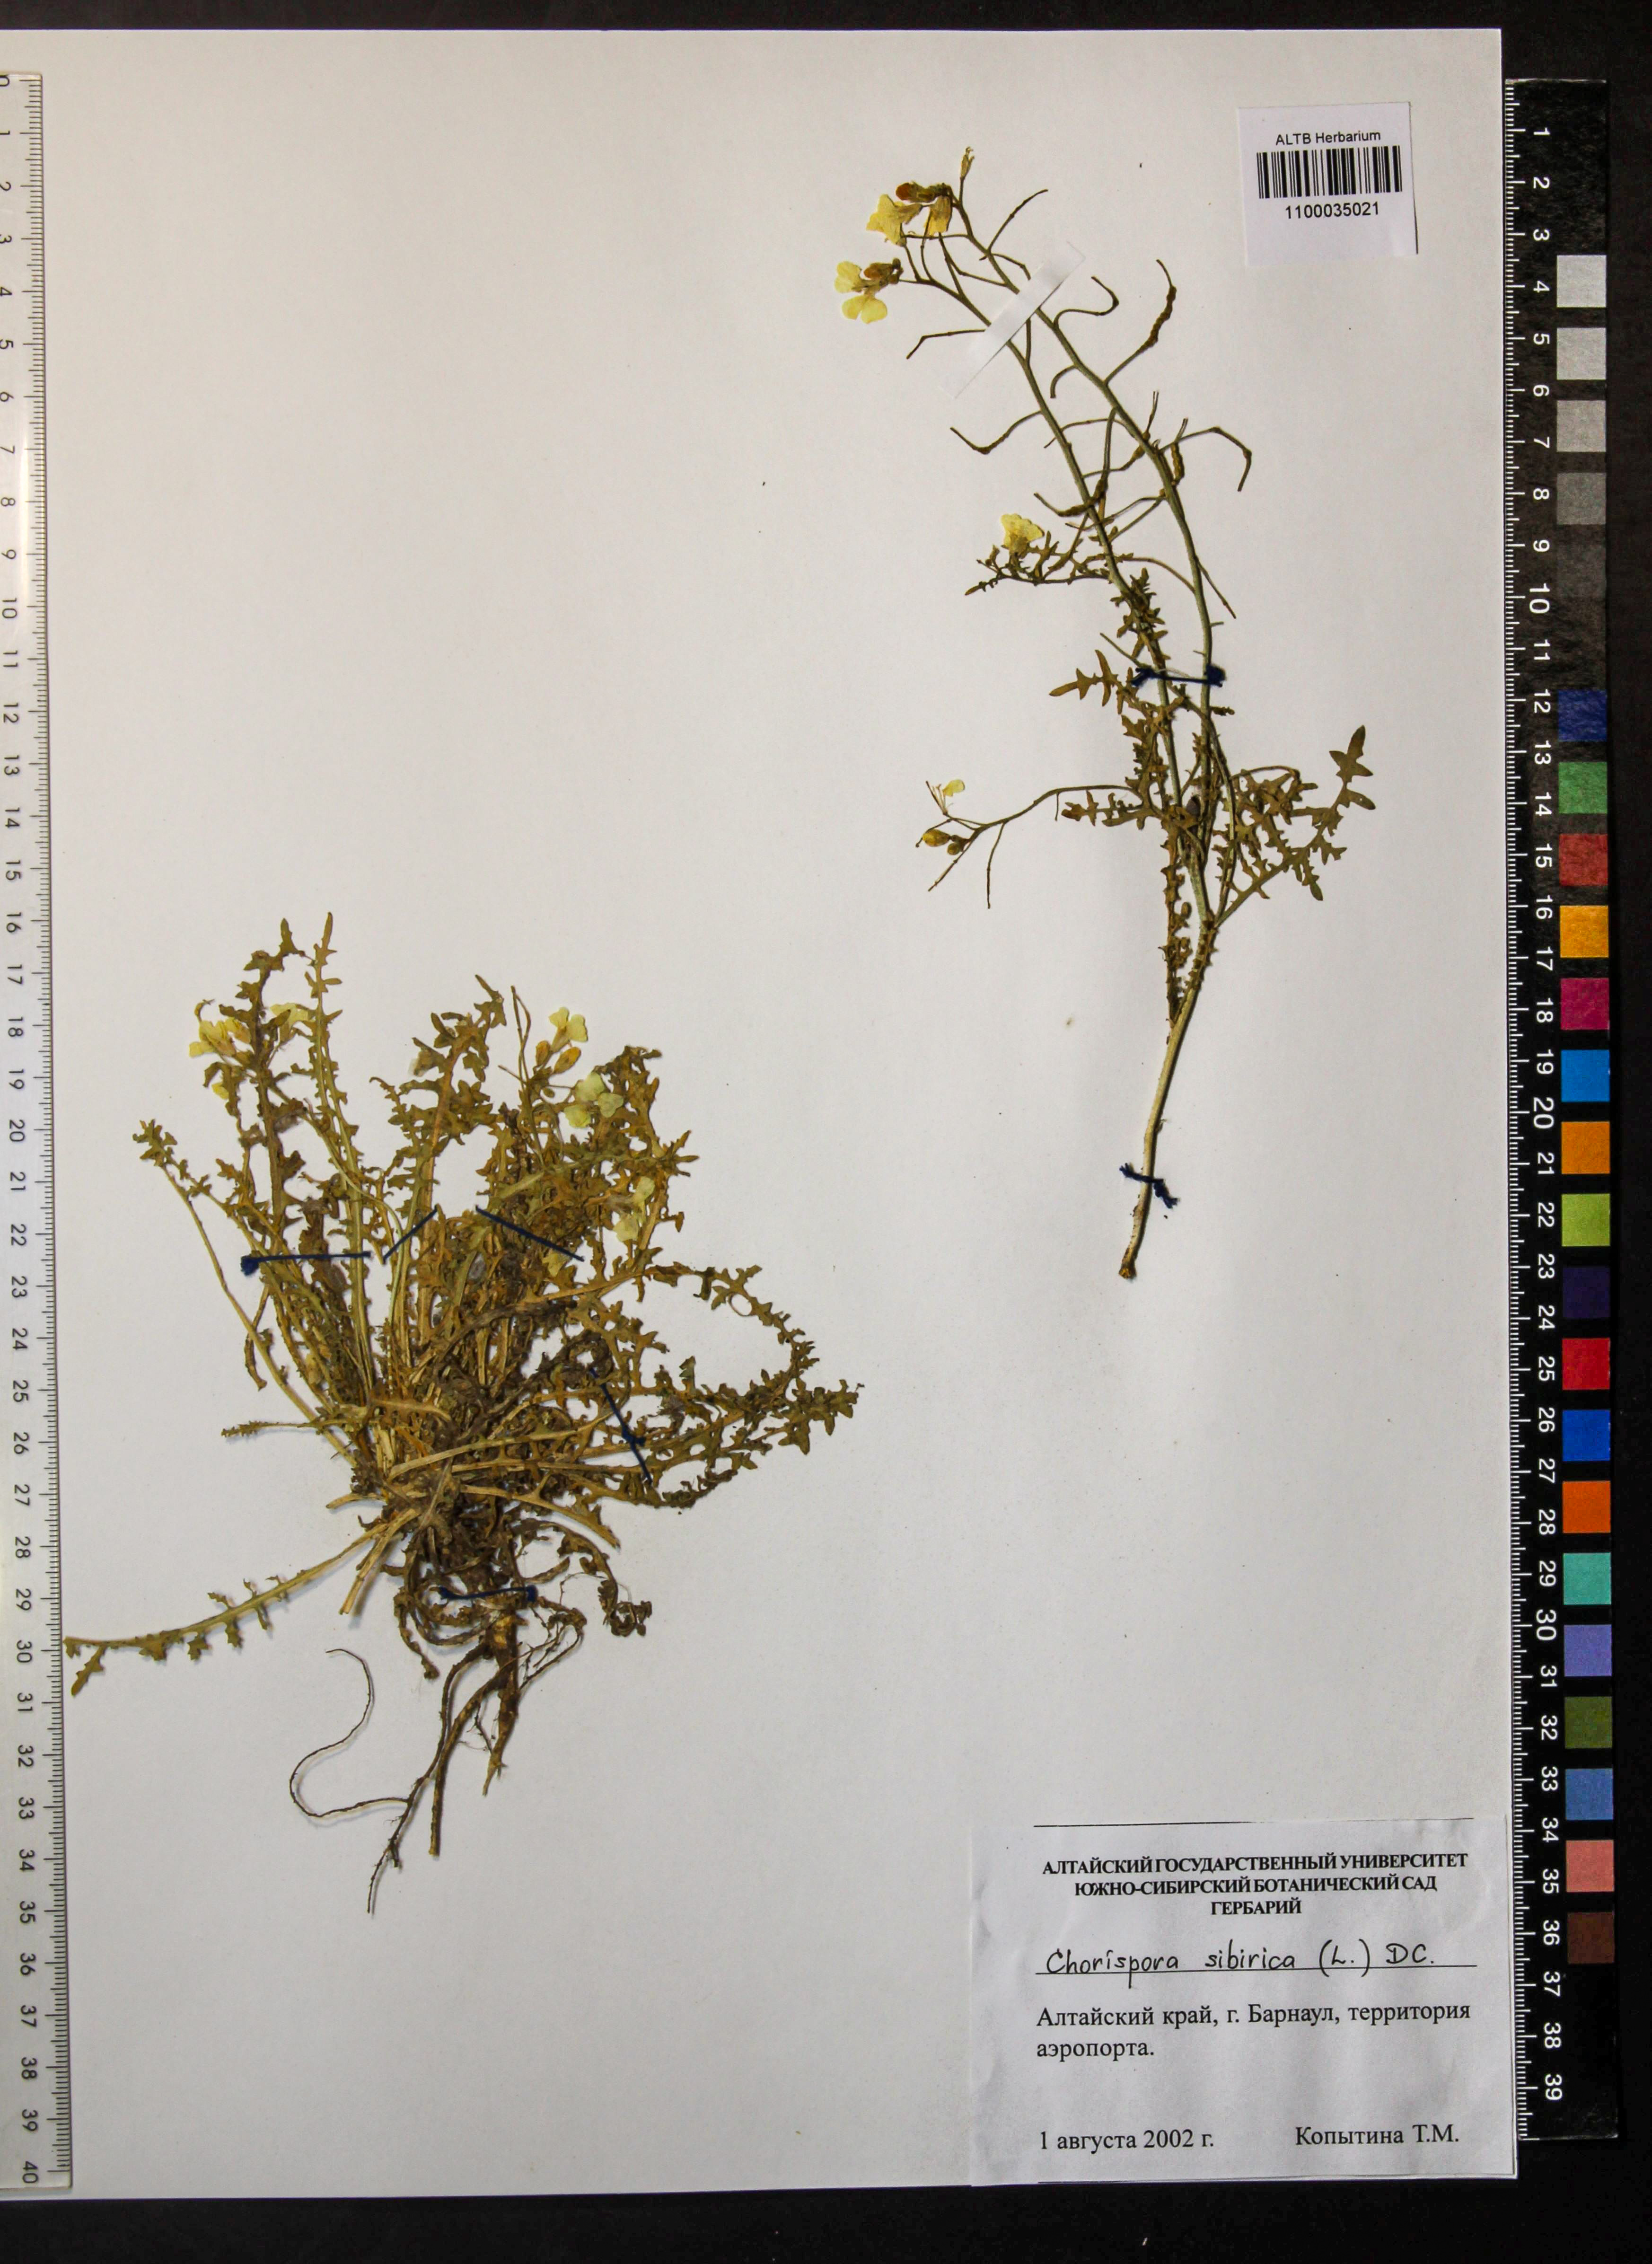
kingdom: Plantae
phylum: Tracheophyta
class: Magnoliopsida
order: Brassicales
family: Brassicaceae
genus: Chorispora
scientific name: Chorispora sibirica
